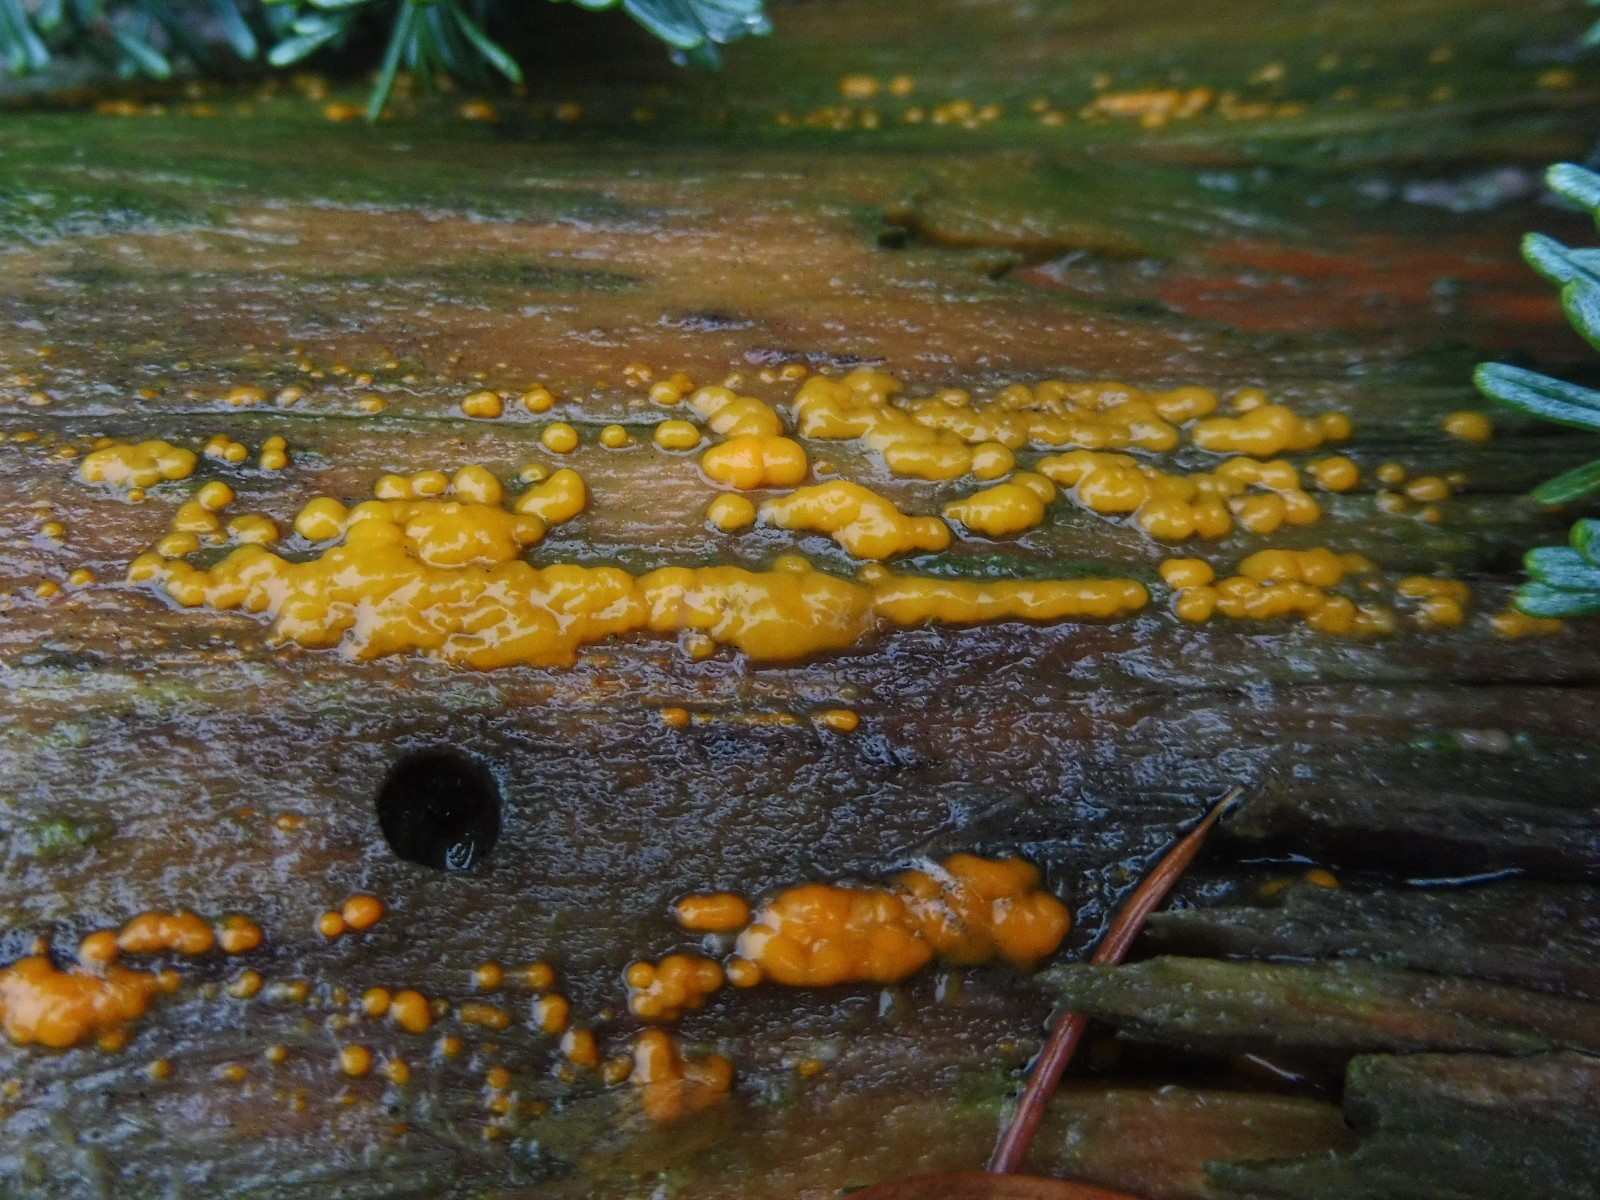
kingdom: Fungi
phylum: Basidiomycota
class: Dacrymycetes
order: Dacrymycetales
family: Dacrymycetaceae
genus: Dacrymyces
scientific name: Dacrymyces stillatus
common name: almindelig tåresvamp
